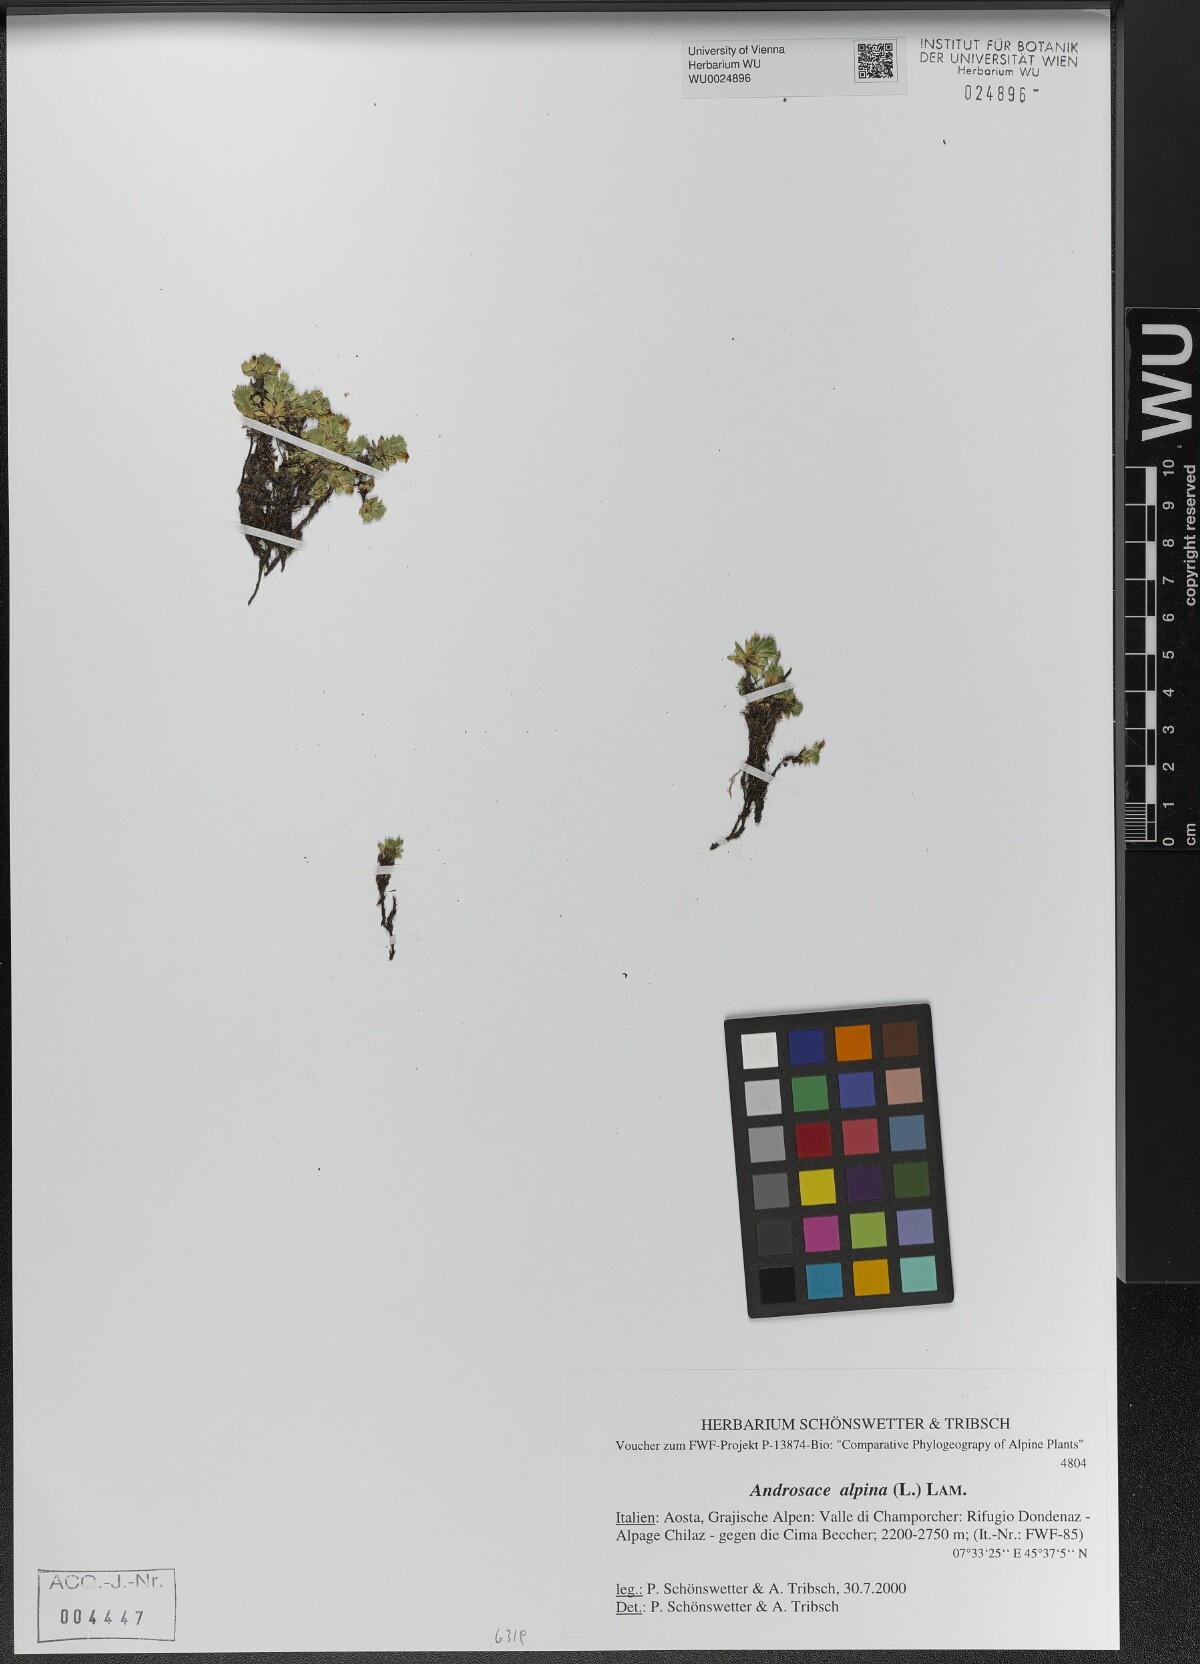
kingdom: Plantae
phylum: Tracheophyta
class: Magnoliopsida
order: Ericales
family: Primulaceae
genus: Androsace
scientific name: Androsace alpina
